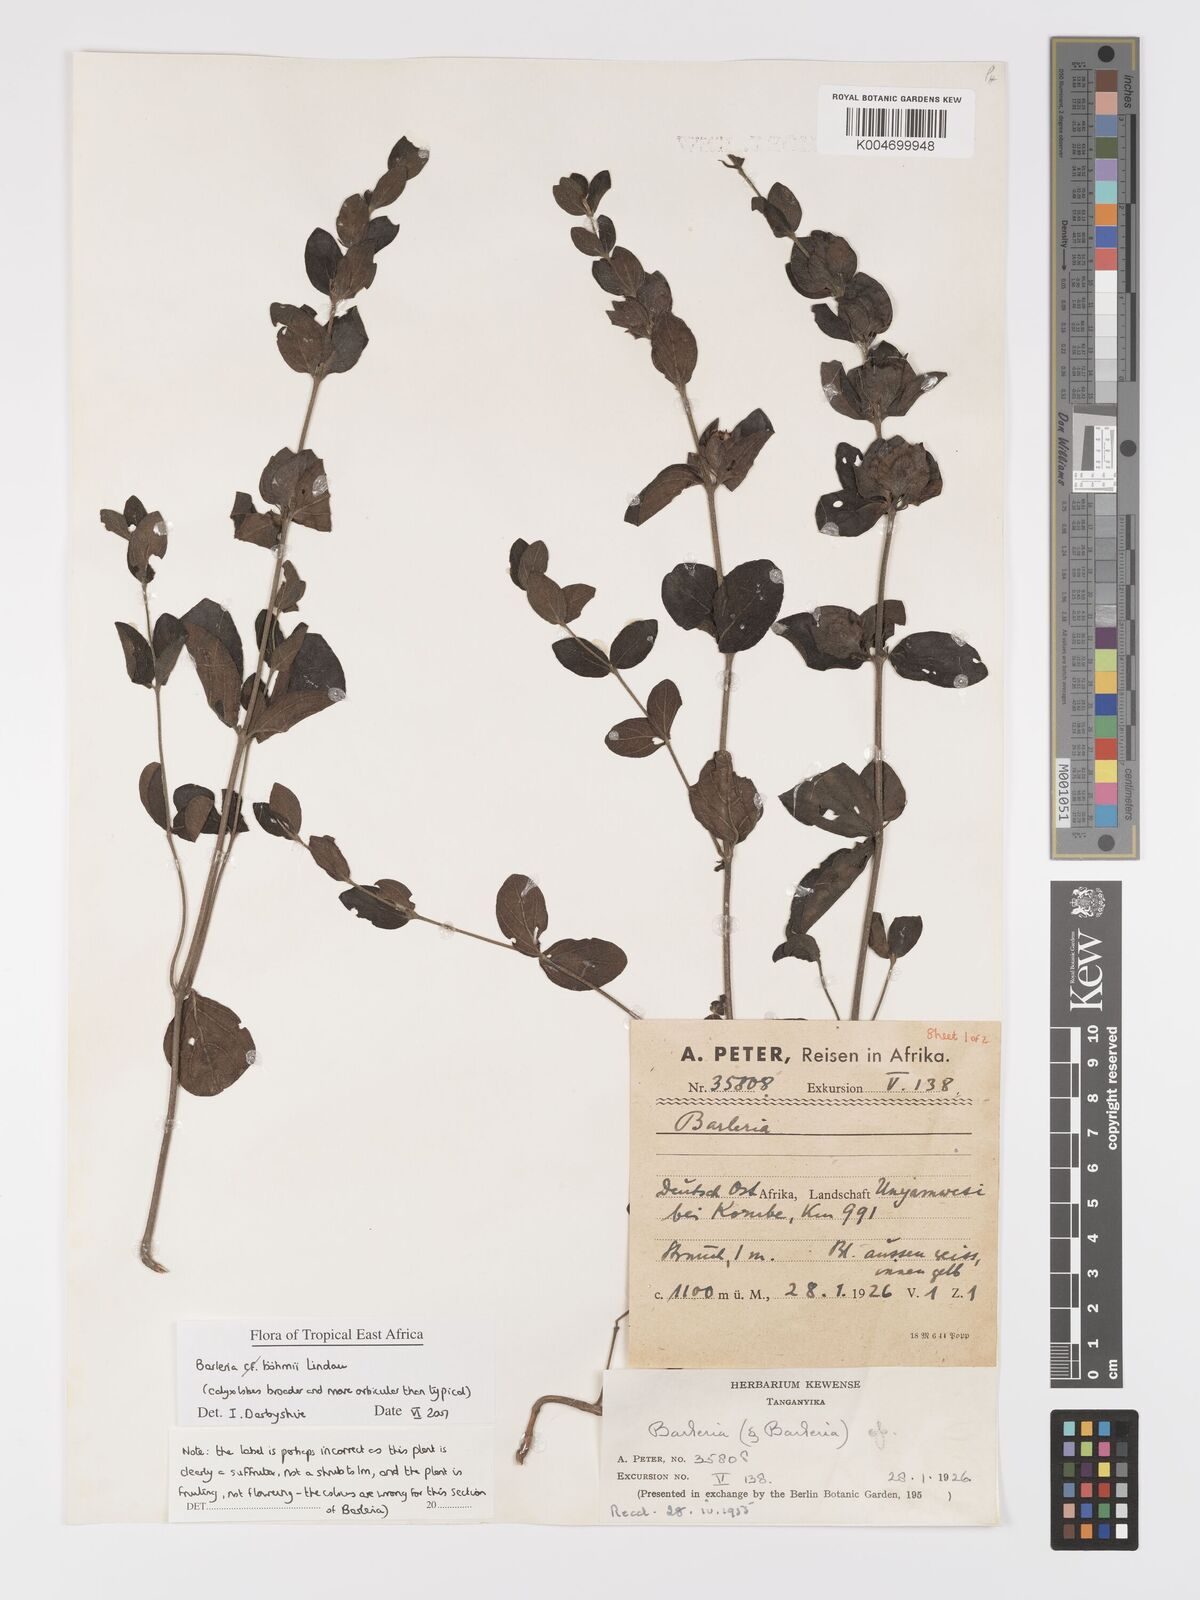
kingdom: Plantae
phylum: Tracheophyta
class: Magnoliopsida
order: Lamiales
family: Acanthaceae
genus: Barleria
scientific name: Barleria boehmii
